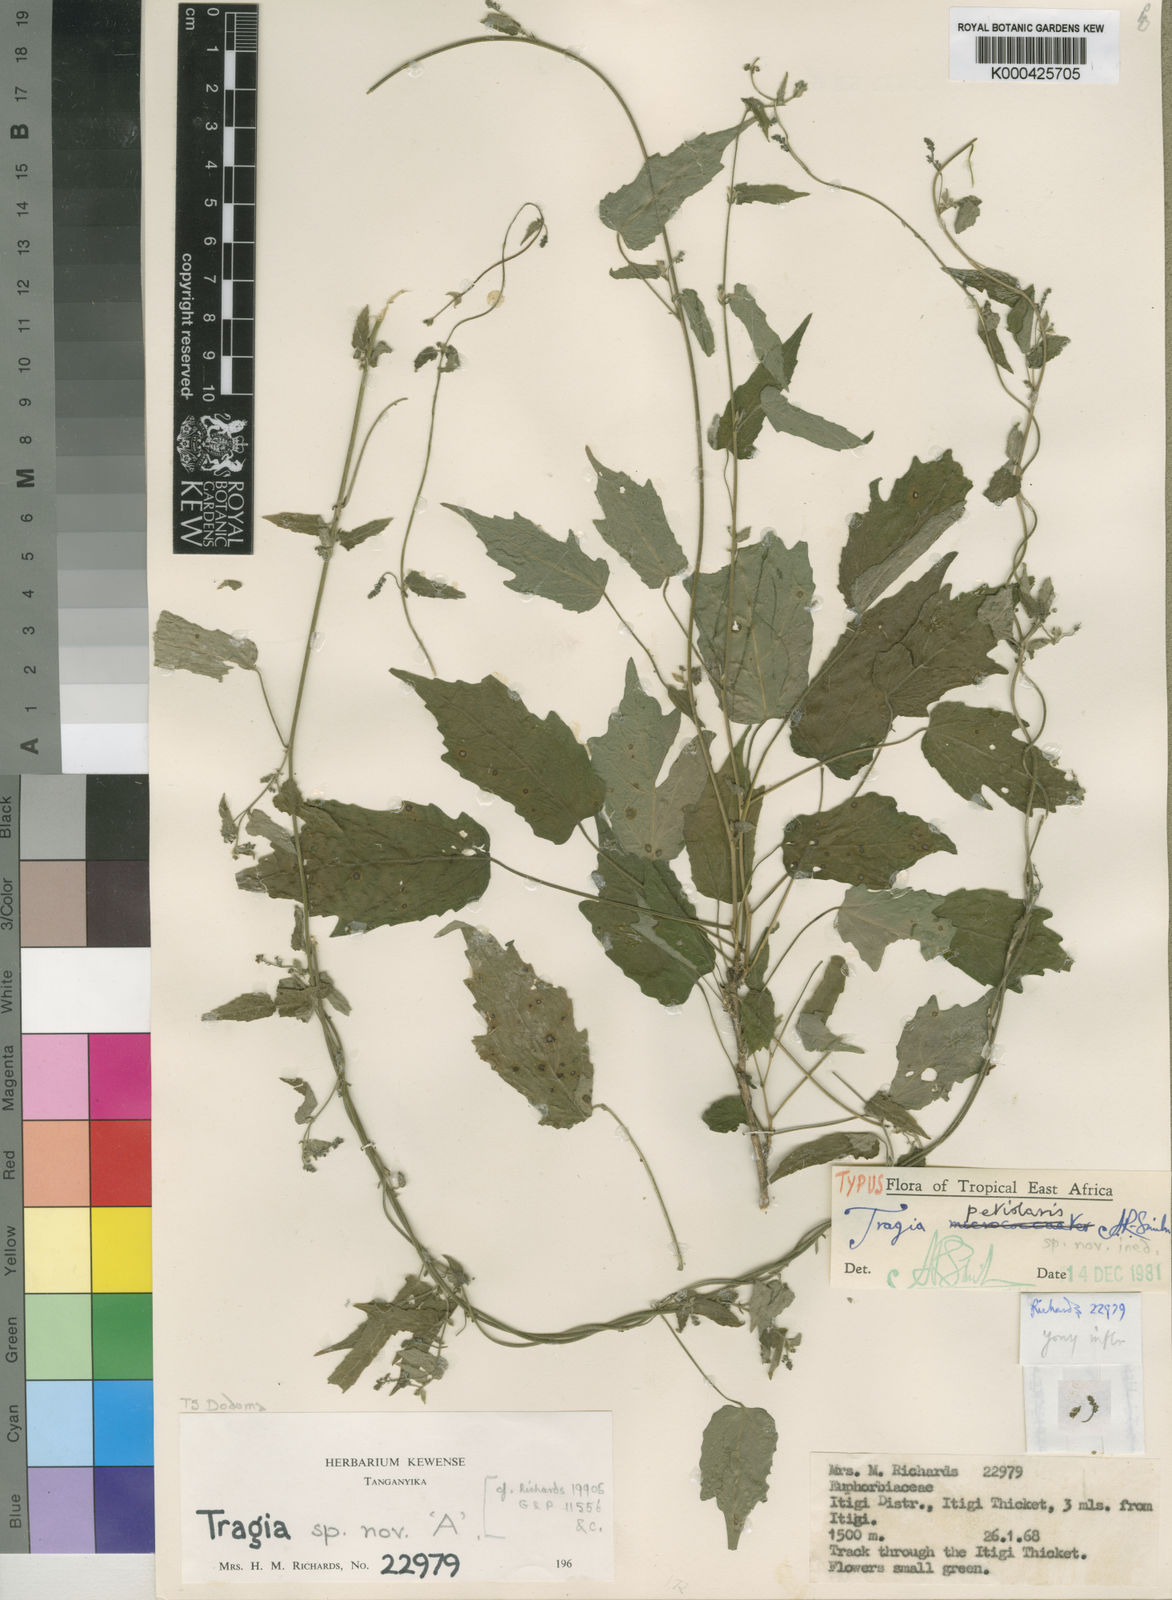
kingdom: Plantae
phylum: Tracheophyta
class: Magnoliopsida
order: Malpighiales
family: Euphorbiaceae
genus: Tragia
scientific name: Tragia petiolaris
